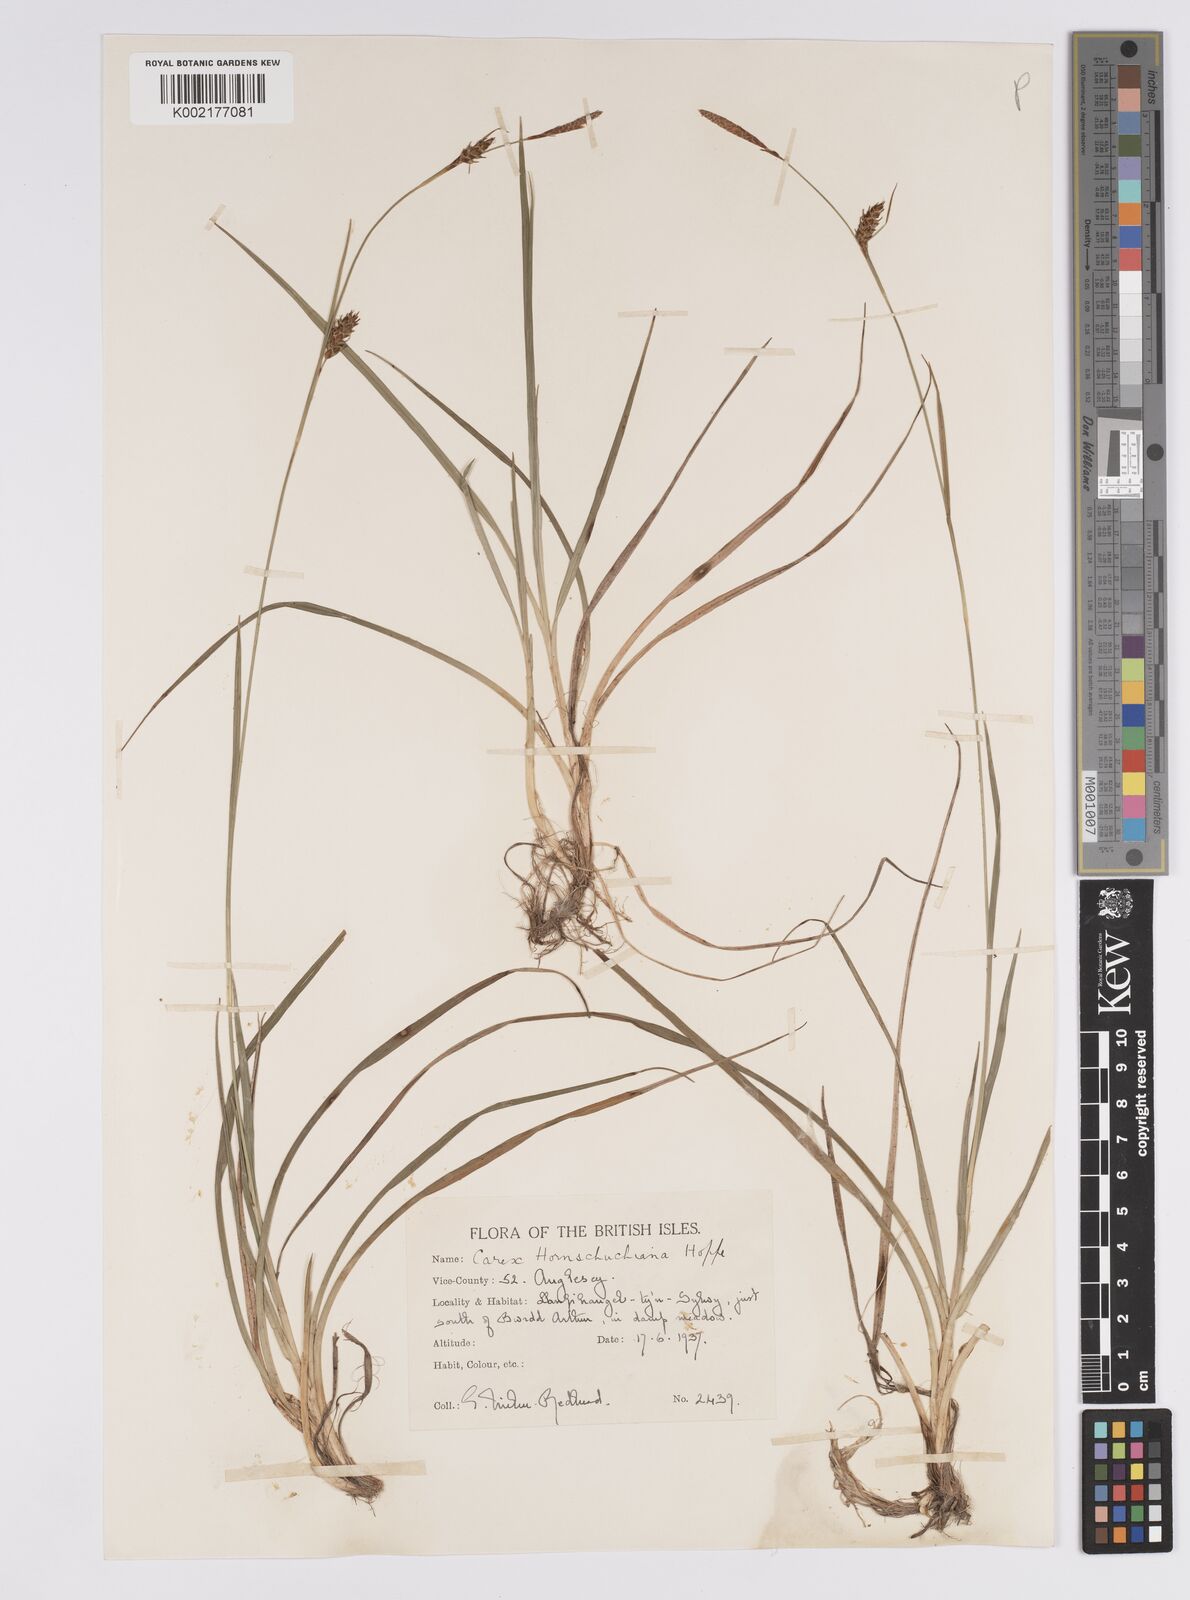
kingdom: Plantae
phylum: Tracheophyta
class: Liliopsida
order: Poales
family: Cyperaceae
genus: Carex
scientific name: Carex hostiana
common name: Tawny sedge
